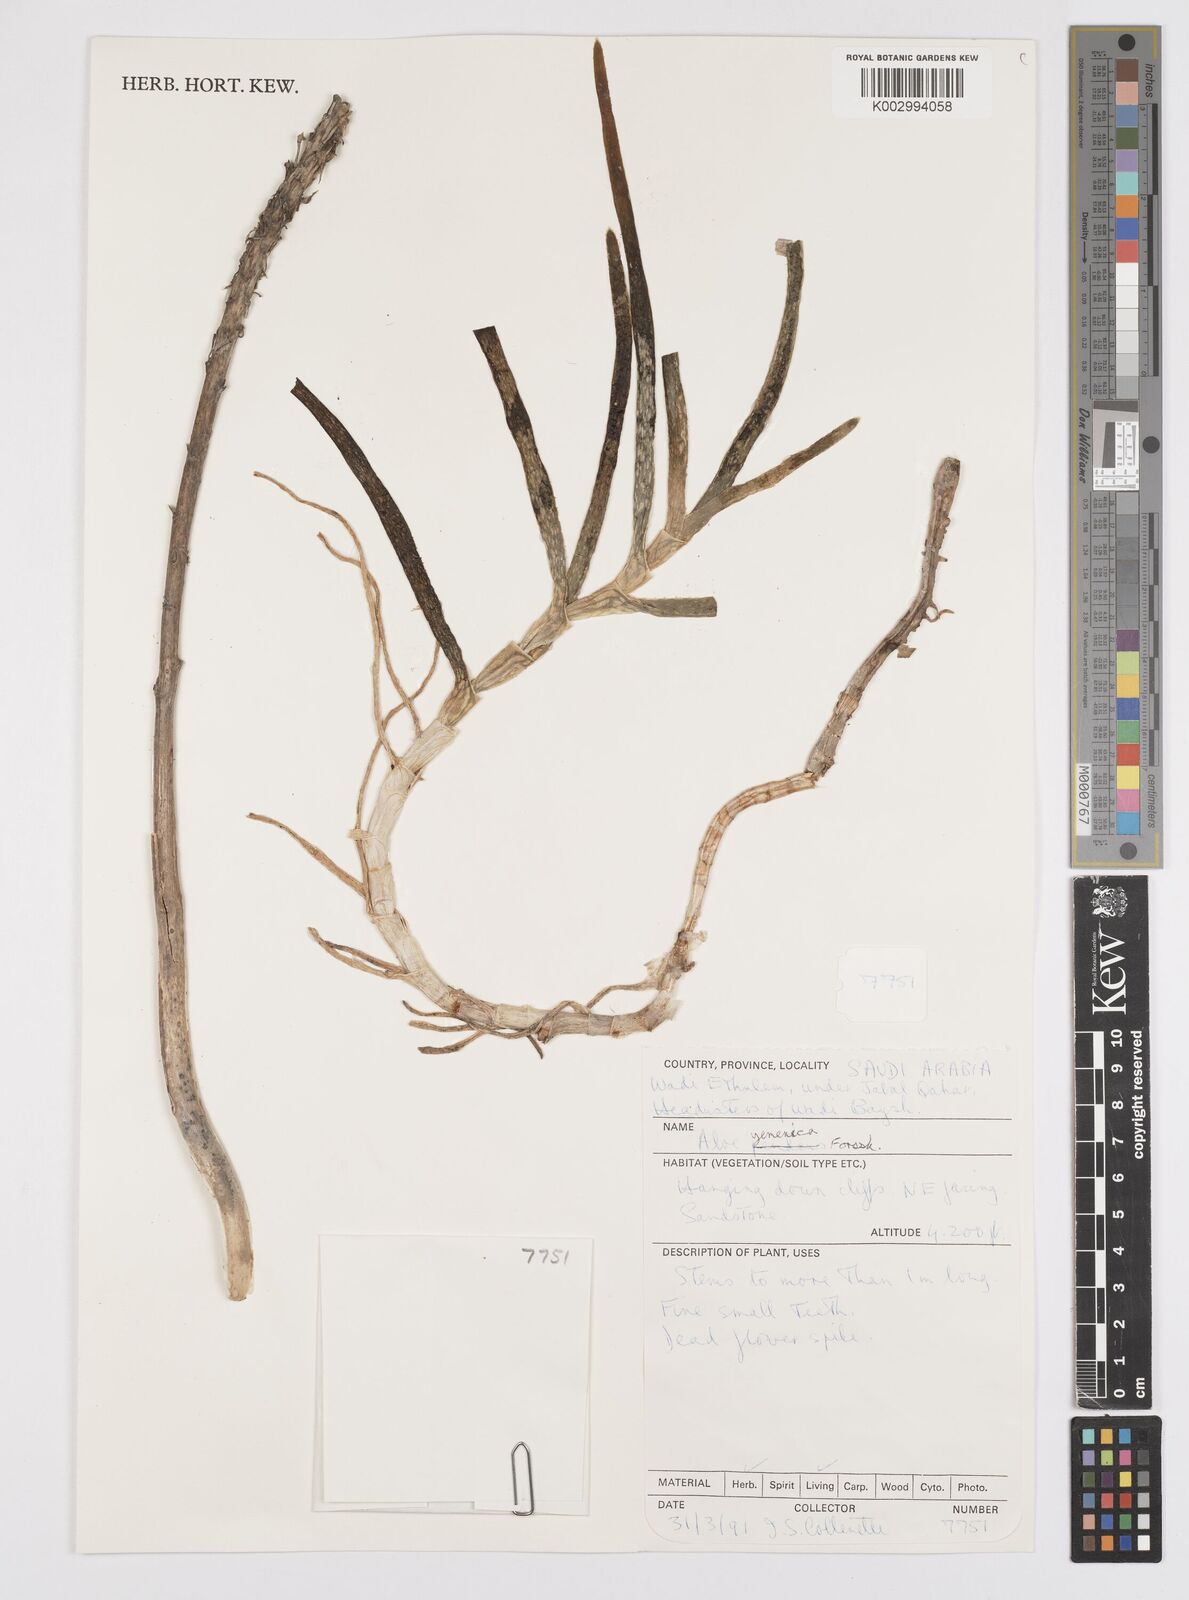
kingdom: Plantae
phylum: Tracheophyta
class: Liliopsida
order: Asparagales
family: Asphodelaceae
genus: Aloe
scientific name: Aloe yemenica
